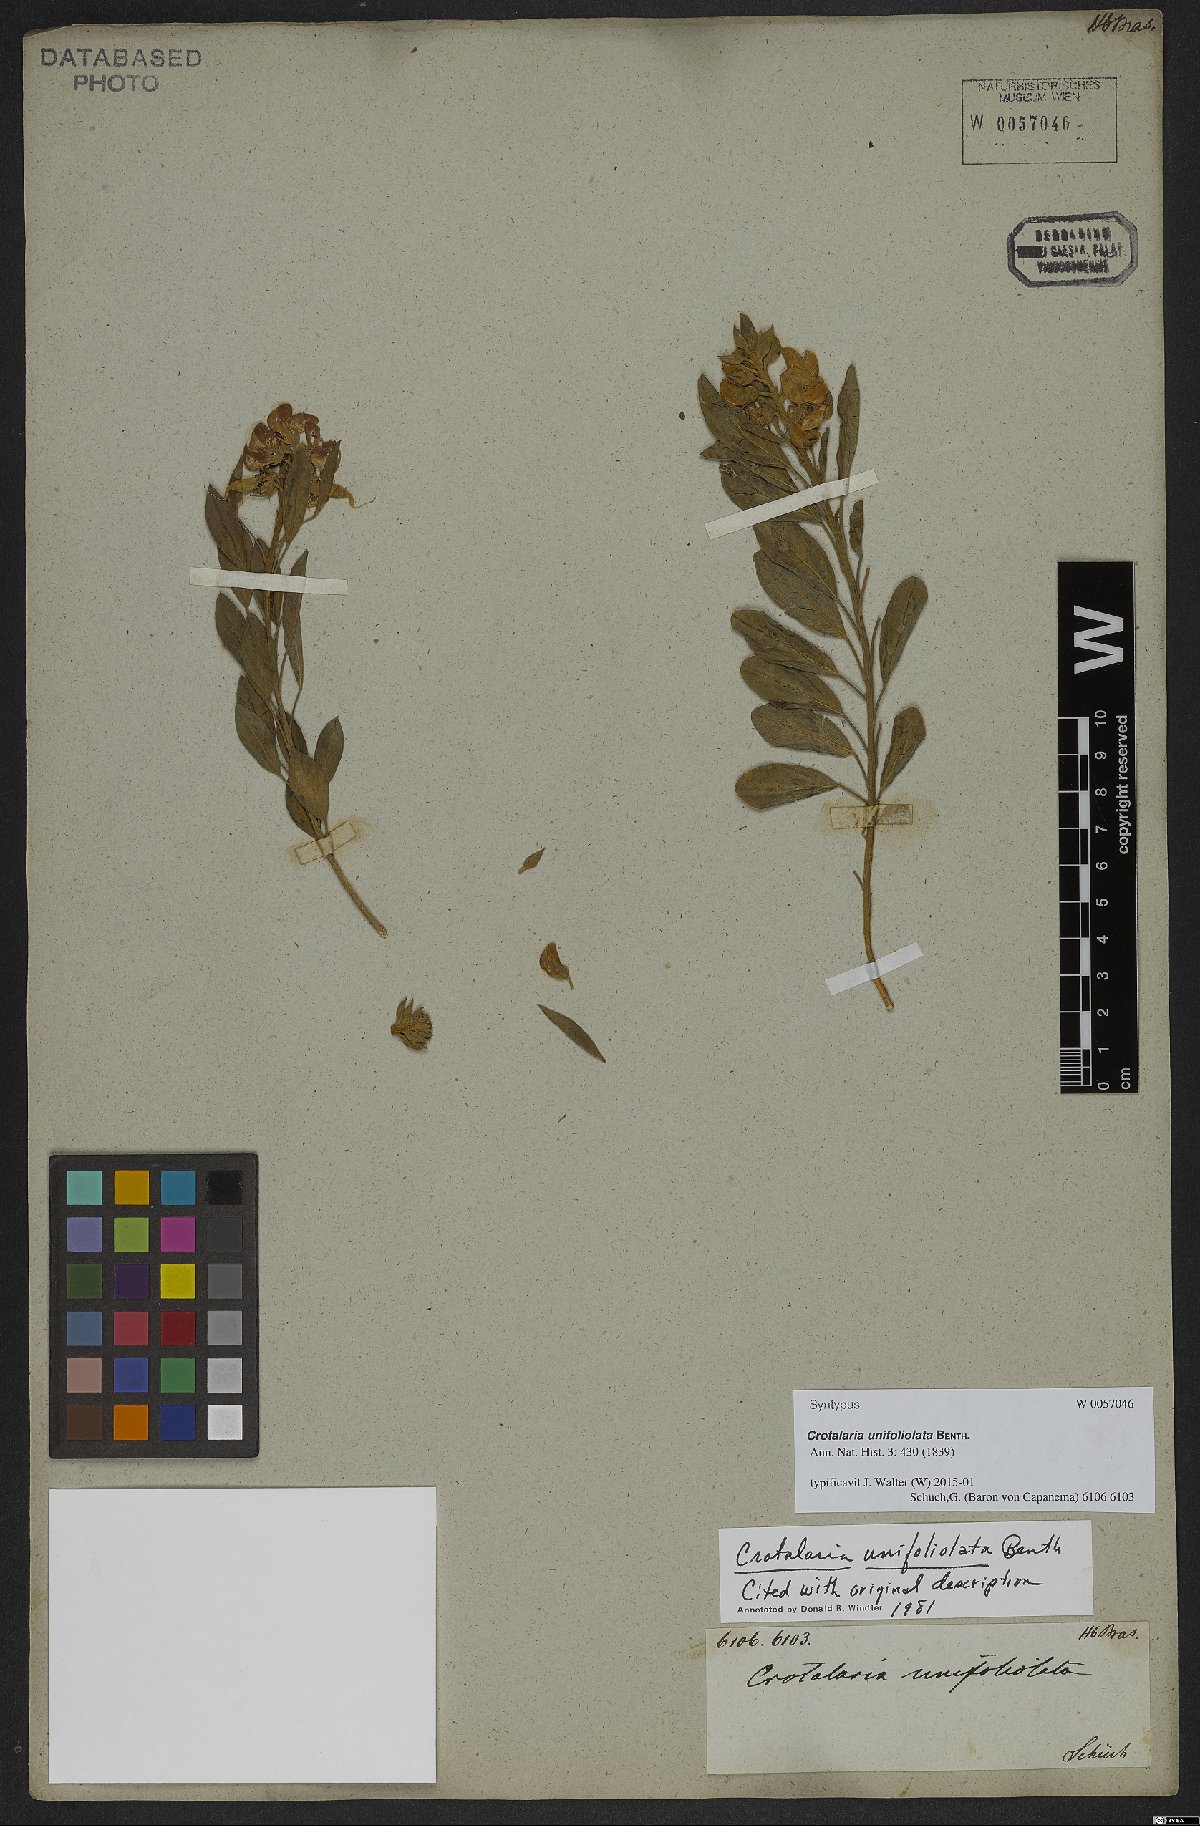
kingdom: Plantae
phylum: Tracheophyta
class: Magnoliopsida
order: Fabales
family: Fabaceae
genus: Crotalaria
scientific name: Crotalaria unifoliolata
